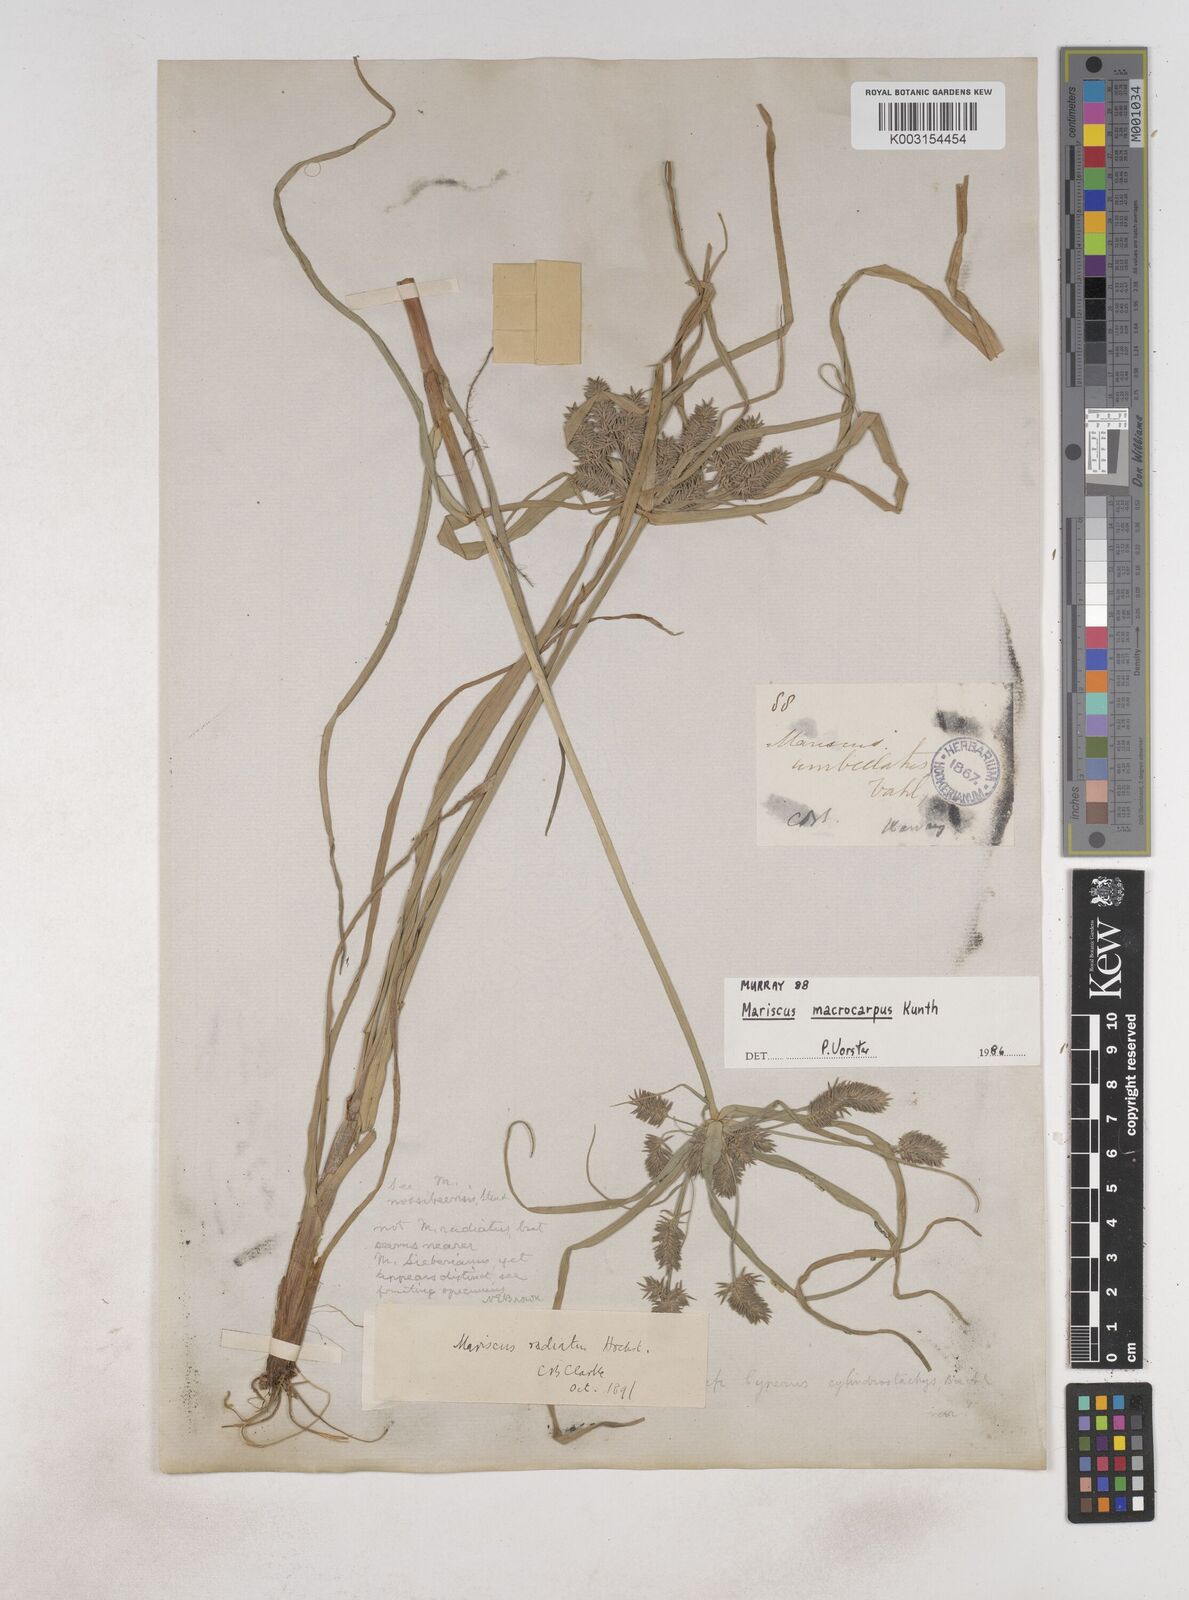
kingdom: Plantae
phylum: Tracheophyta
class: Liliopsida
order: Poales
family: Cyperaceae
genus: Cyperus
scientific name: Cyperus macrocarpus
